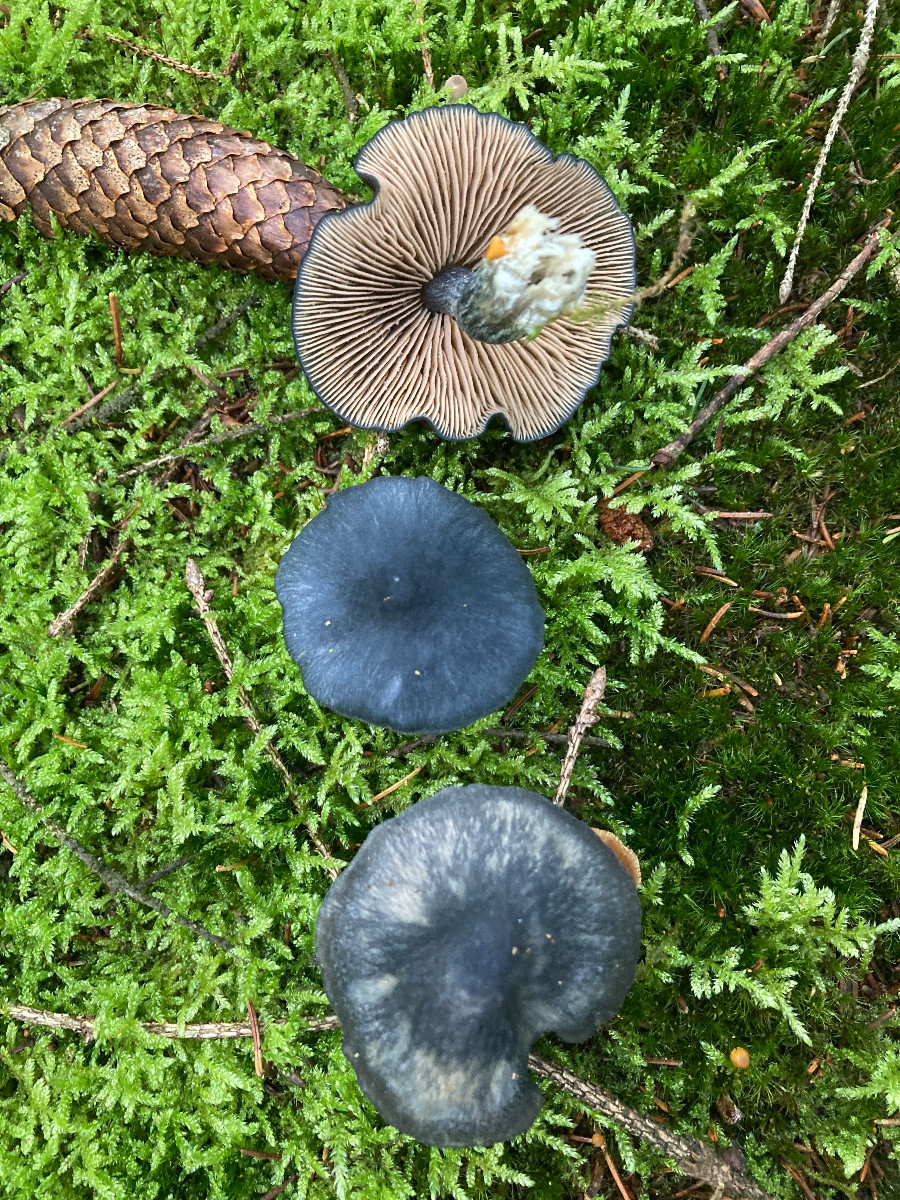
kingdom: Fungi
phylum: Basidiomycota
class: Agaricomycetes
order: Agaricales
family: Entolomataceae
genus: Entocybe
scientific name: Entocybe nitida
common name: stålblå rødblad
